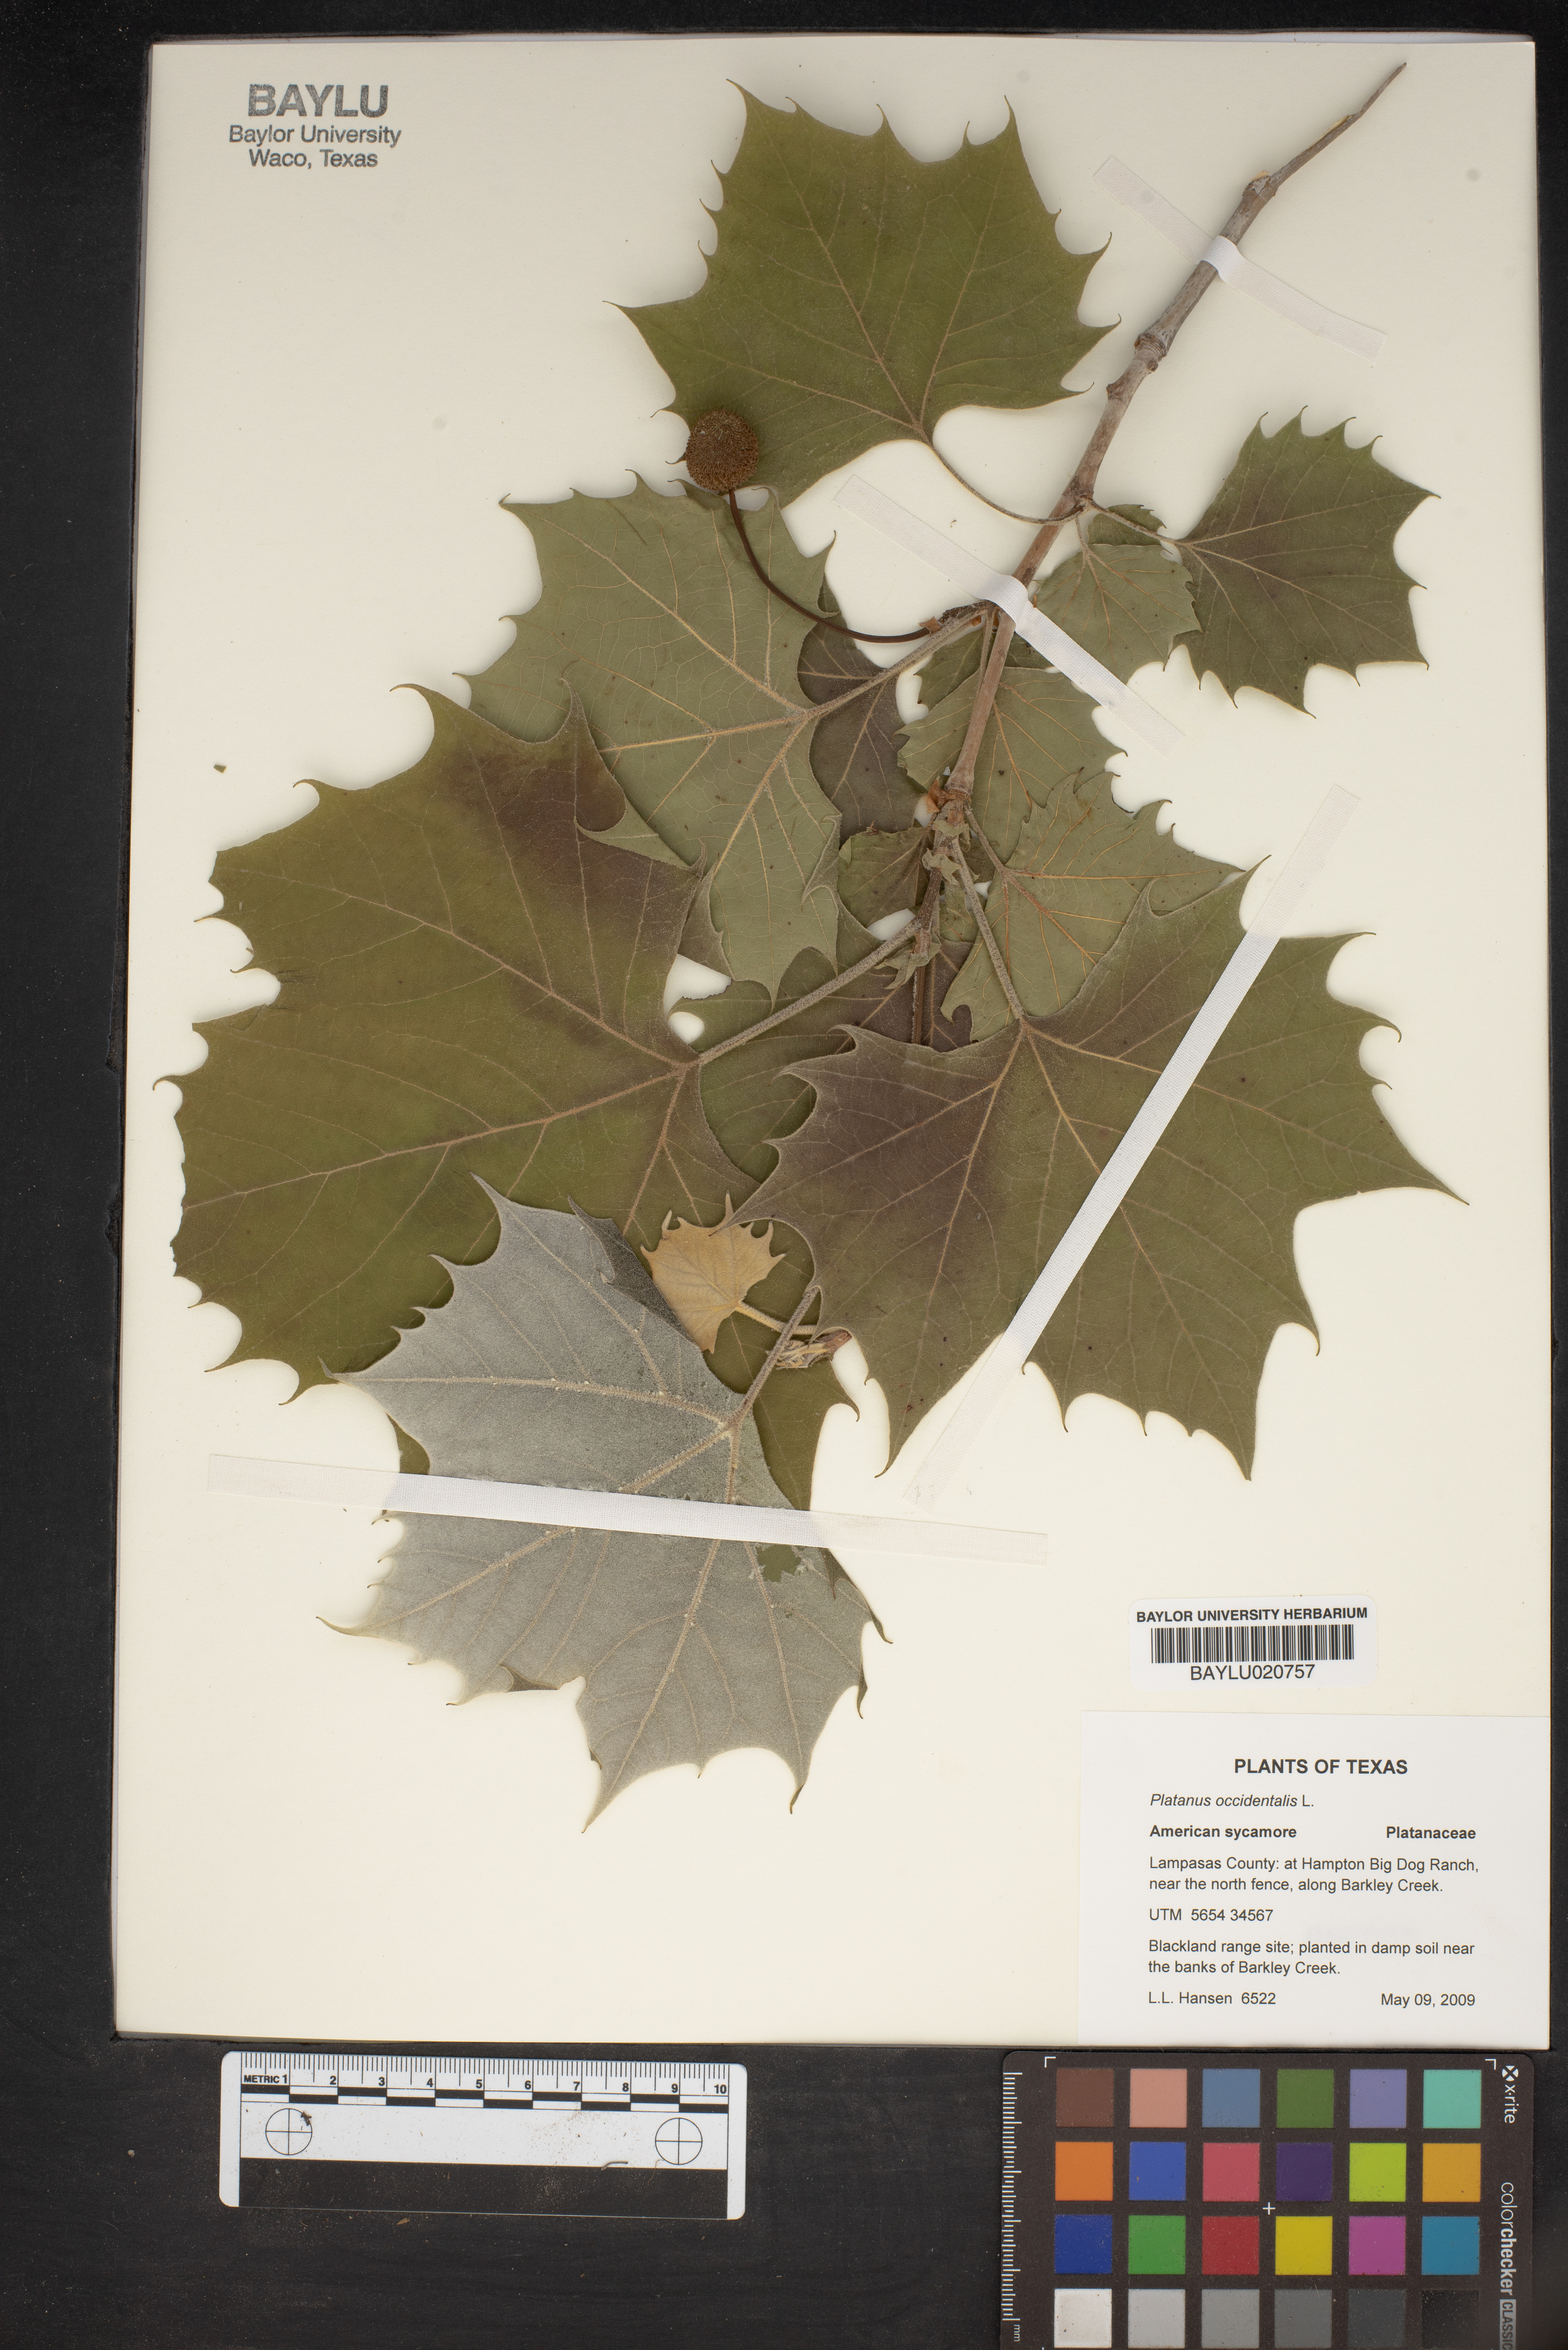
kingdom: Plantae
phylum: Tracheophyta
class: Magnoliopsida
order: Proteales
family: Platanaceae
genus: Platanus
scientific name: Platanus occidentalis
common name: American sycamore
